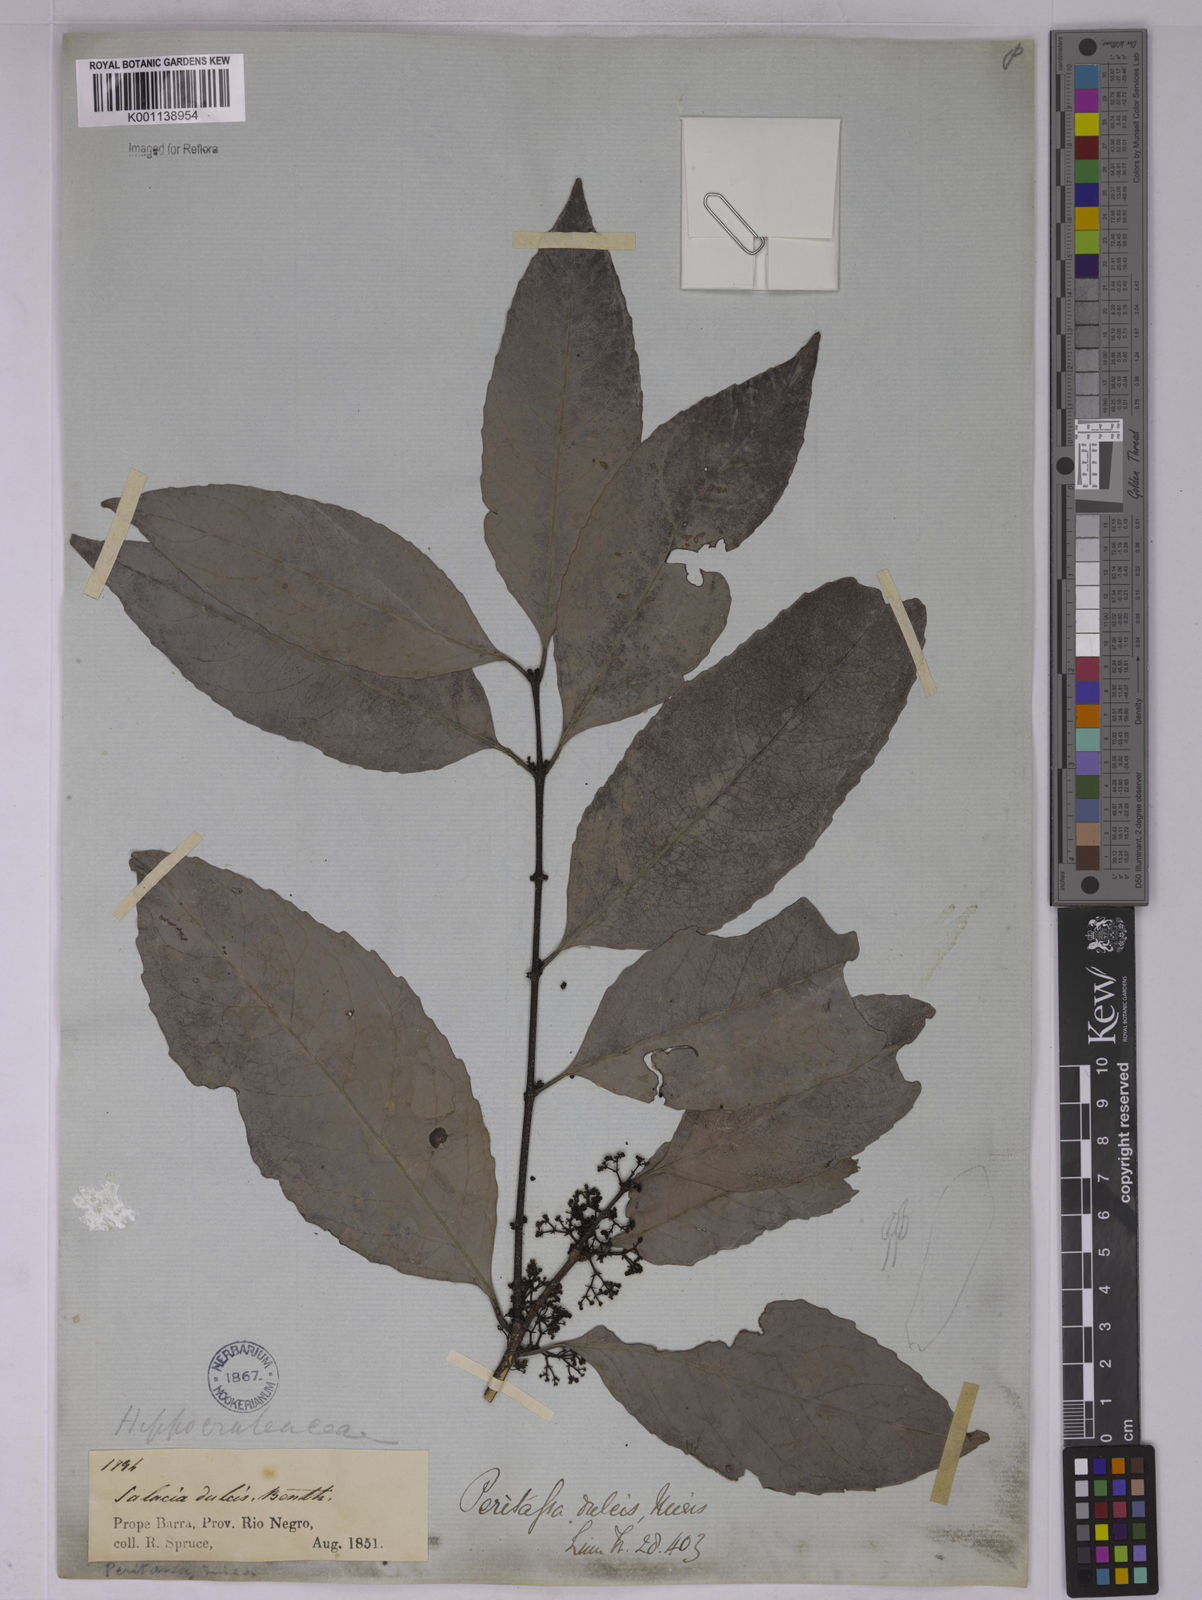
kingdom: Plantae
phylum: Tracheophyta
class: Magnoliopsida
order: Celastrales
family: Celastraceae
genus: Peritassa
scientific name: Peritassa dulcis
